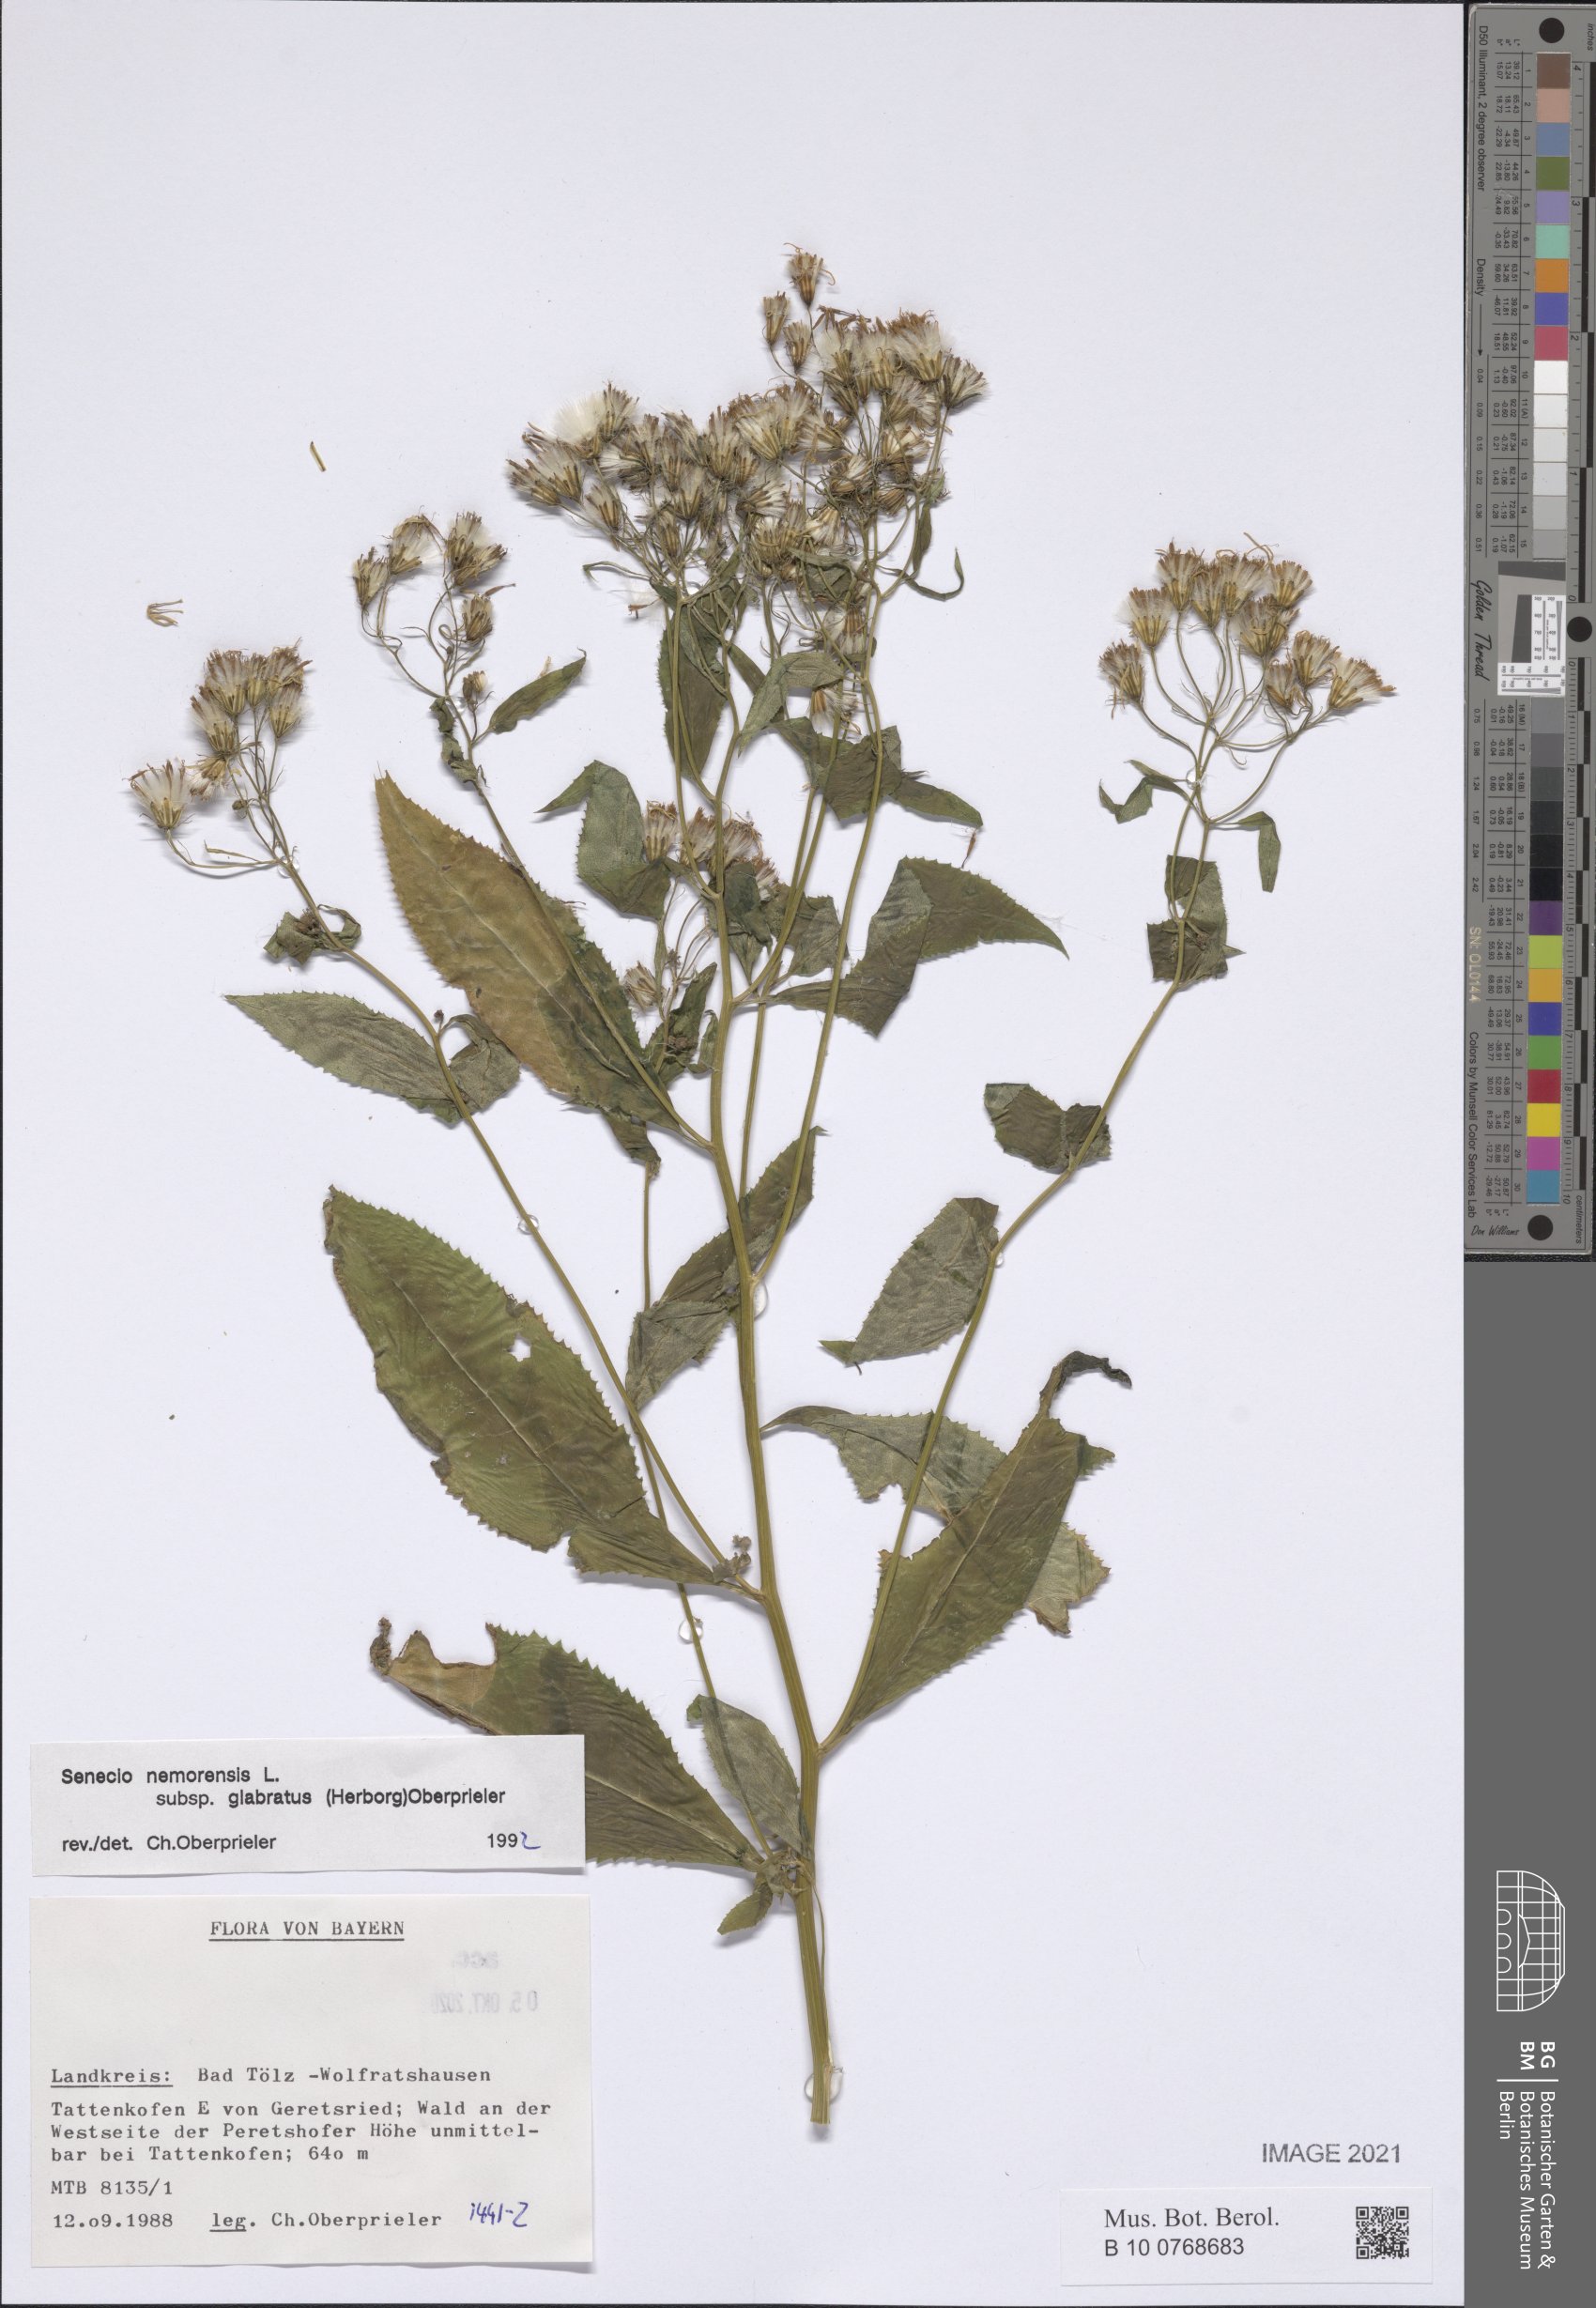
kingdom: Plantae
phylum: Tracheophyta
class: Magnoliopsida
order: Asterales
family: Asteraceae
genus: Senecio
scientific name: Senecio germanicus
